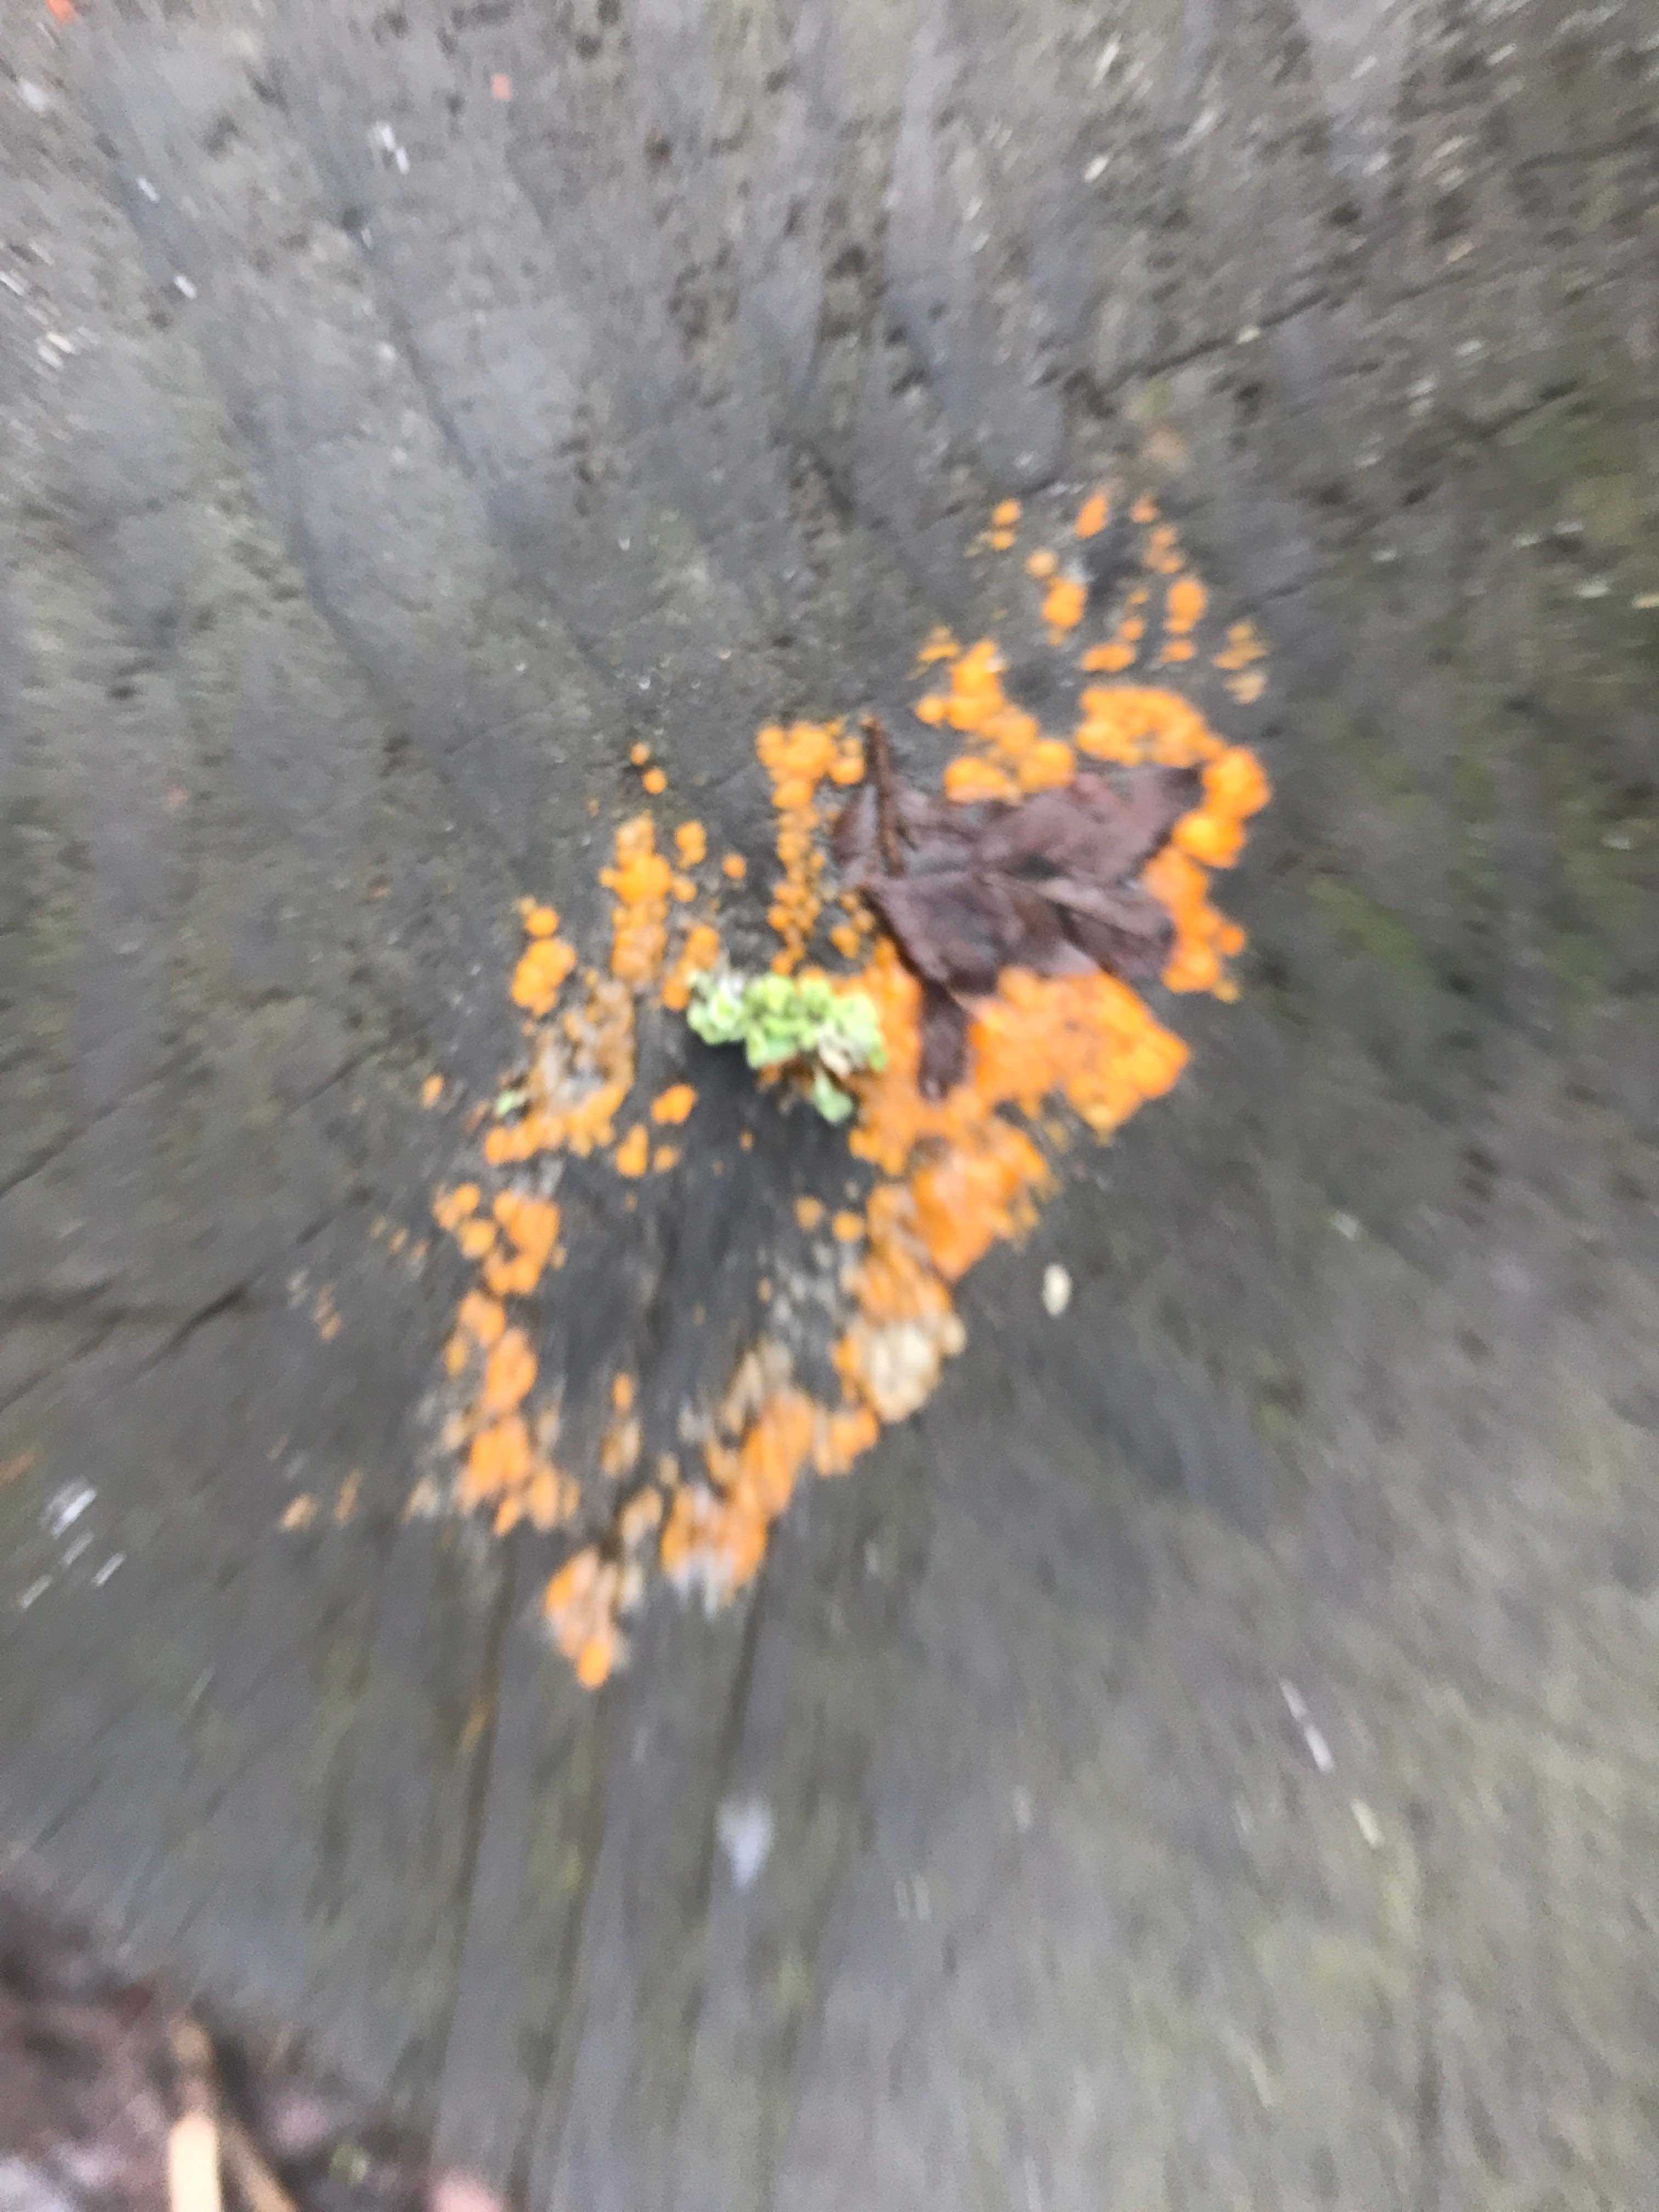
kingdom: Fungi
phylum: Basidiomycota
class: Dacrymycetes
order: Dacrymycetales
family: Dacrymycetaceae
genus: Dacrymyces
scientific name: Dacrymyces stillatus
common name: almindelig tåresvamp
